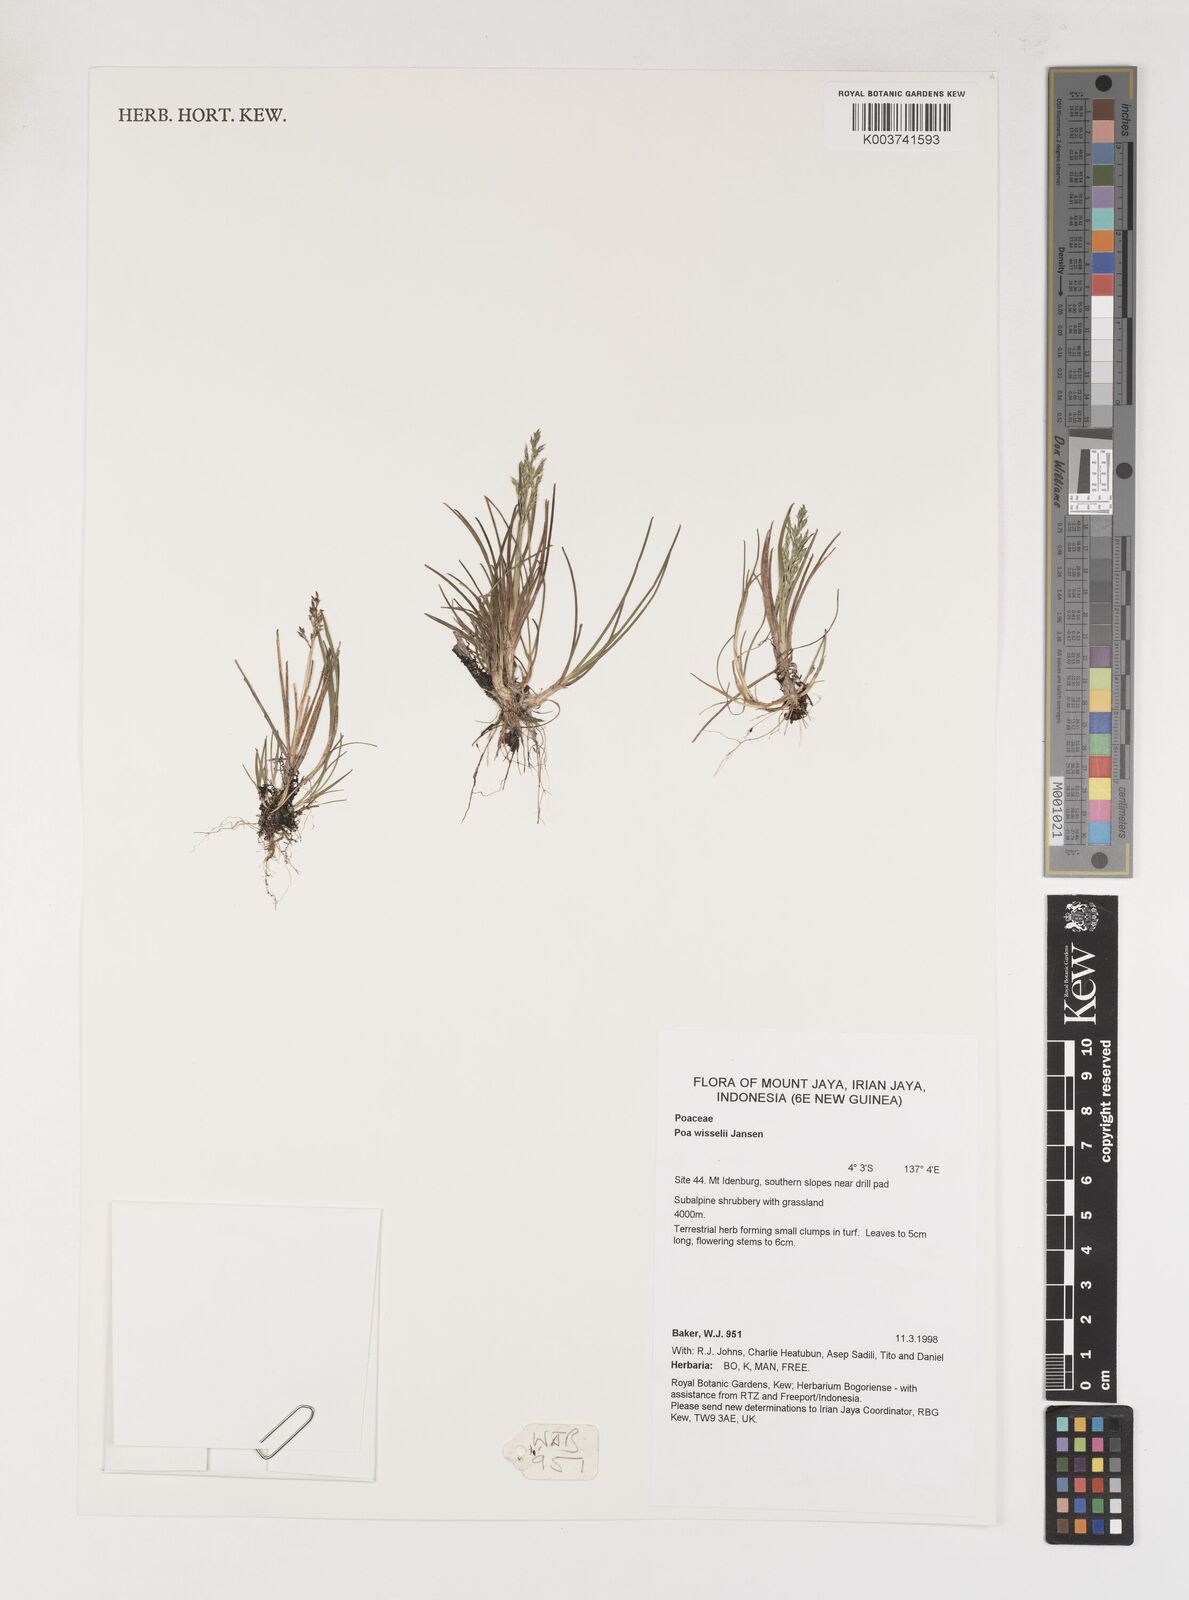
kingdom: Plantae
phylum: Tracheophyta
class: Liliopsida
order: Poales
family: Poaceae
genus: Poa
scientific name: Poa wisselii
